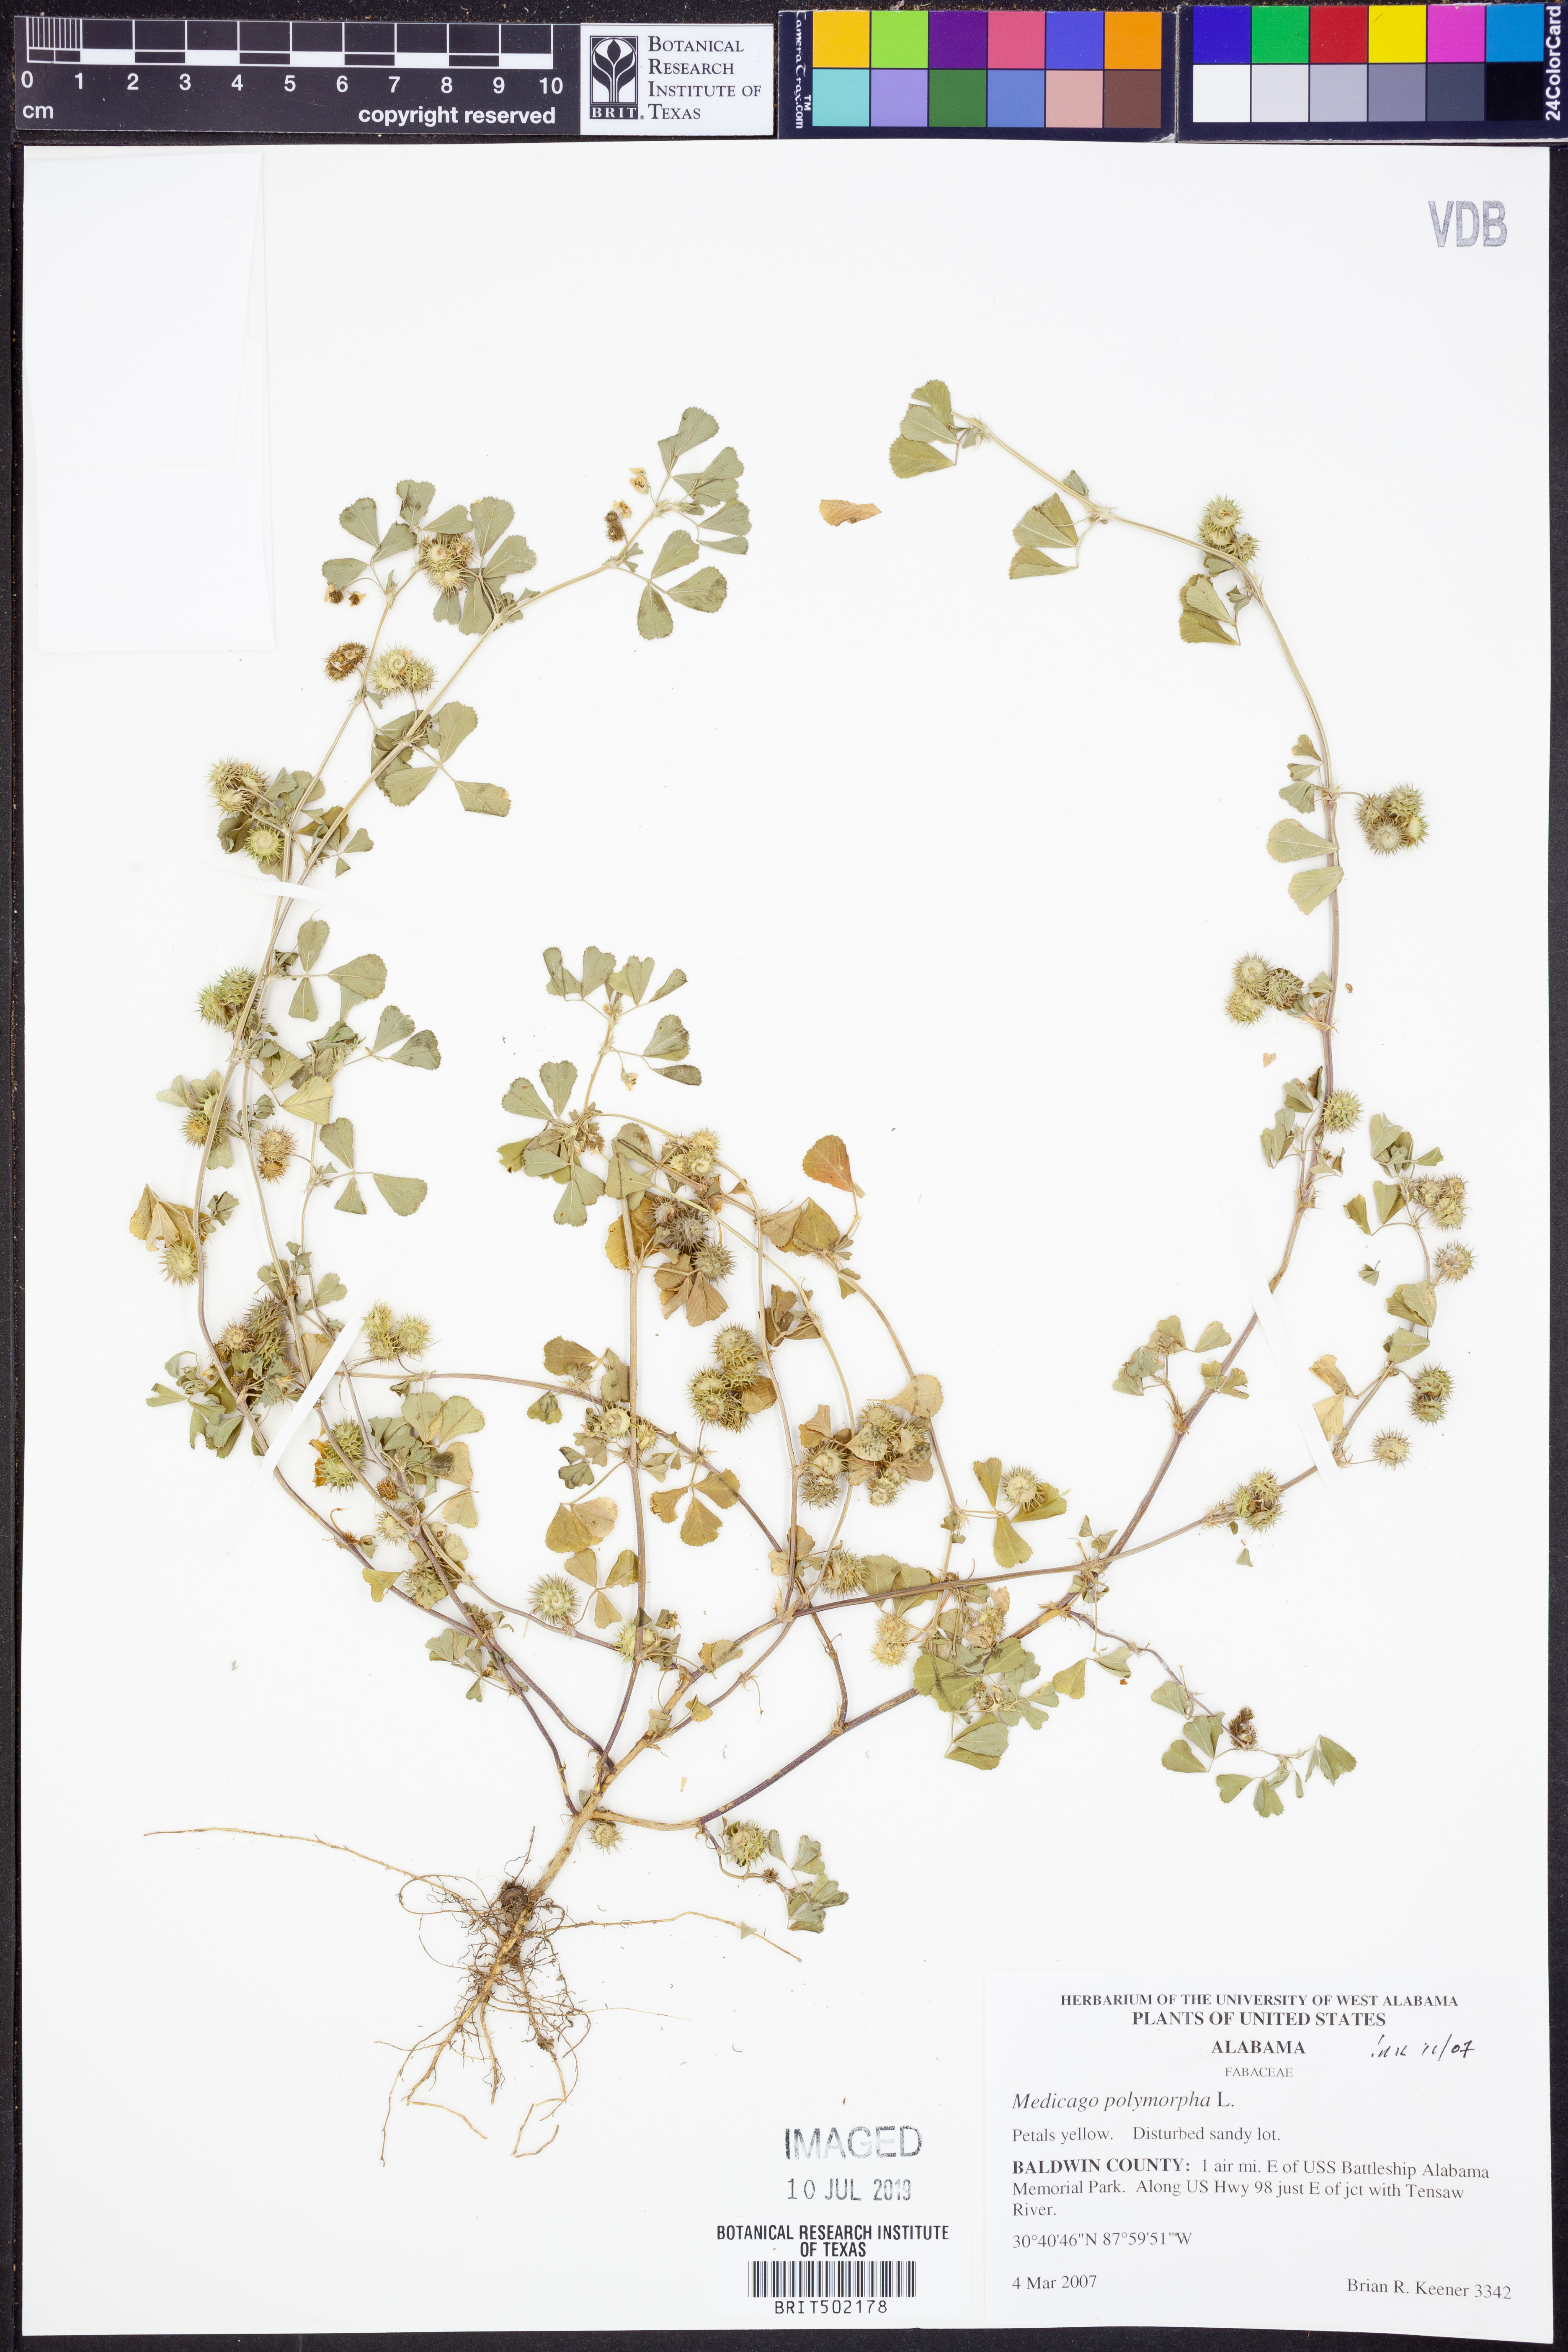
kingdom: Plantae
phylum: Tracheophyta
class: Magnoliopsida
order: Fabales
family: Fabaceae
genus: Medicago
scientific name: Medicago polymorpha
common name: Burclover
